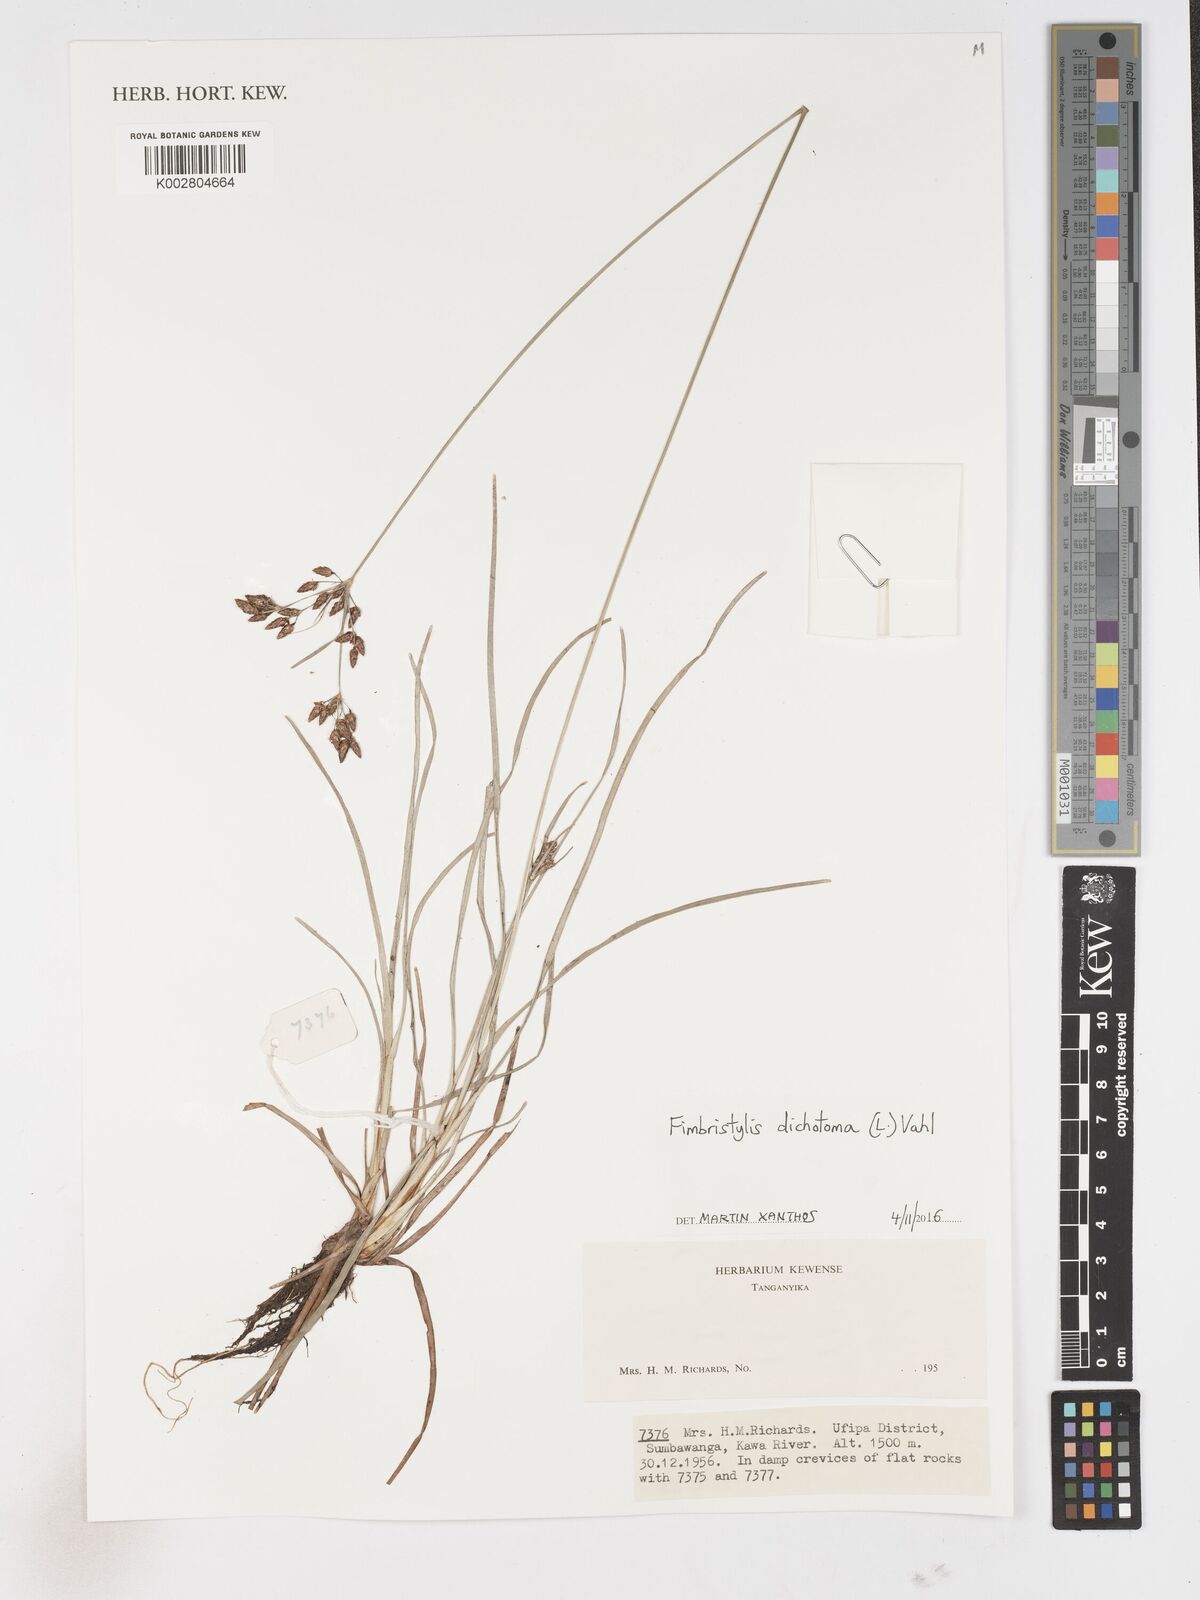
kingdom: Plantae
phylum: Tracheophyta
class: Liliopsida
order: Poales
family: Cyperaceae
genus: Fimbristylis
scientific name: Fimbristylis dichotoma
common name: Forked fimbry
